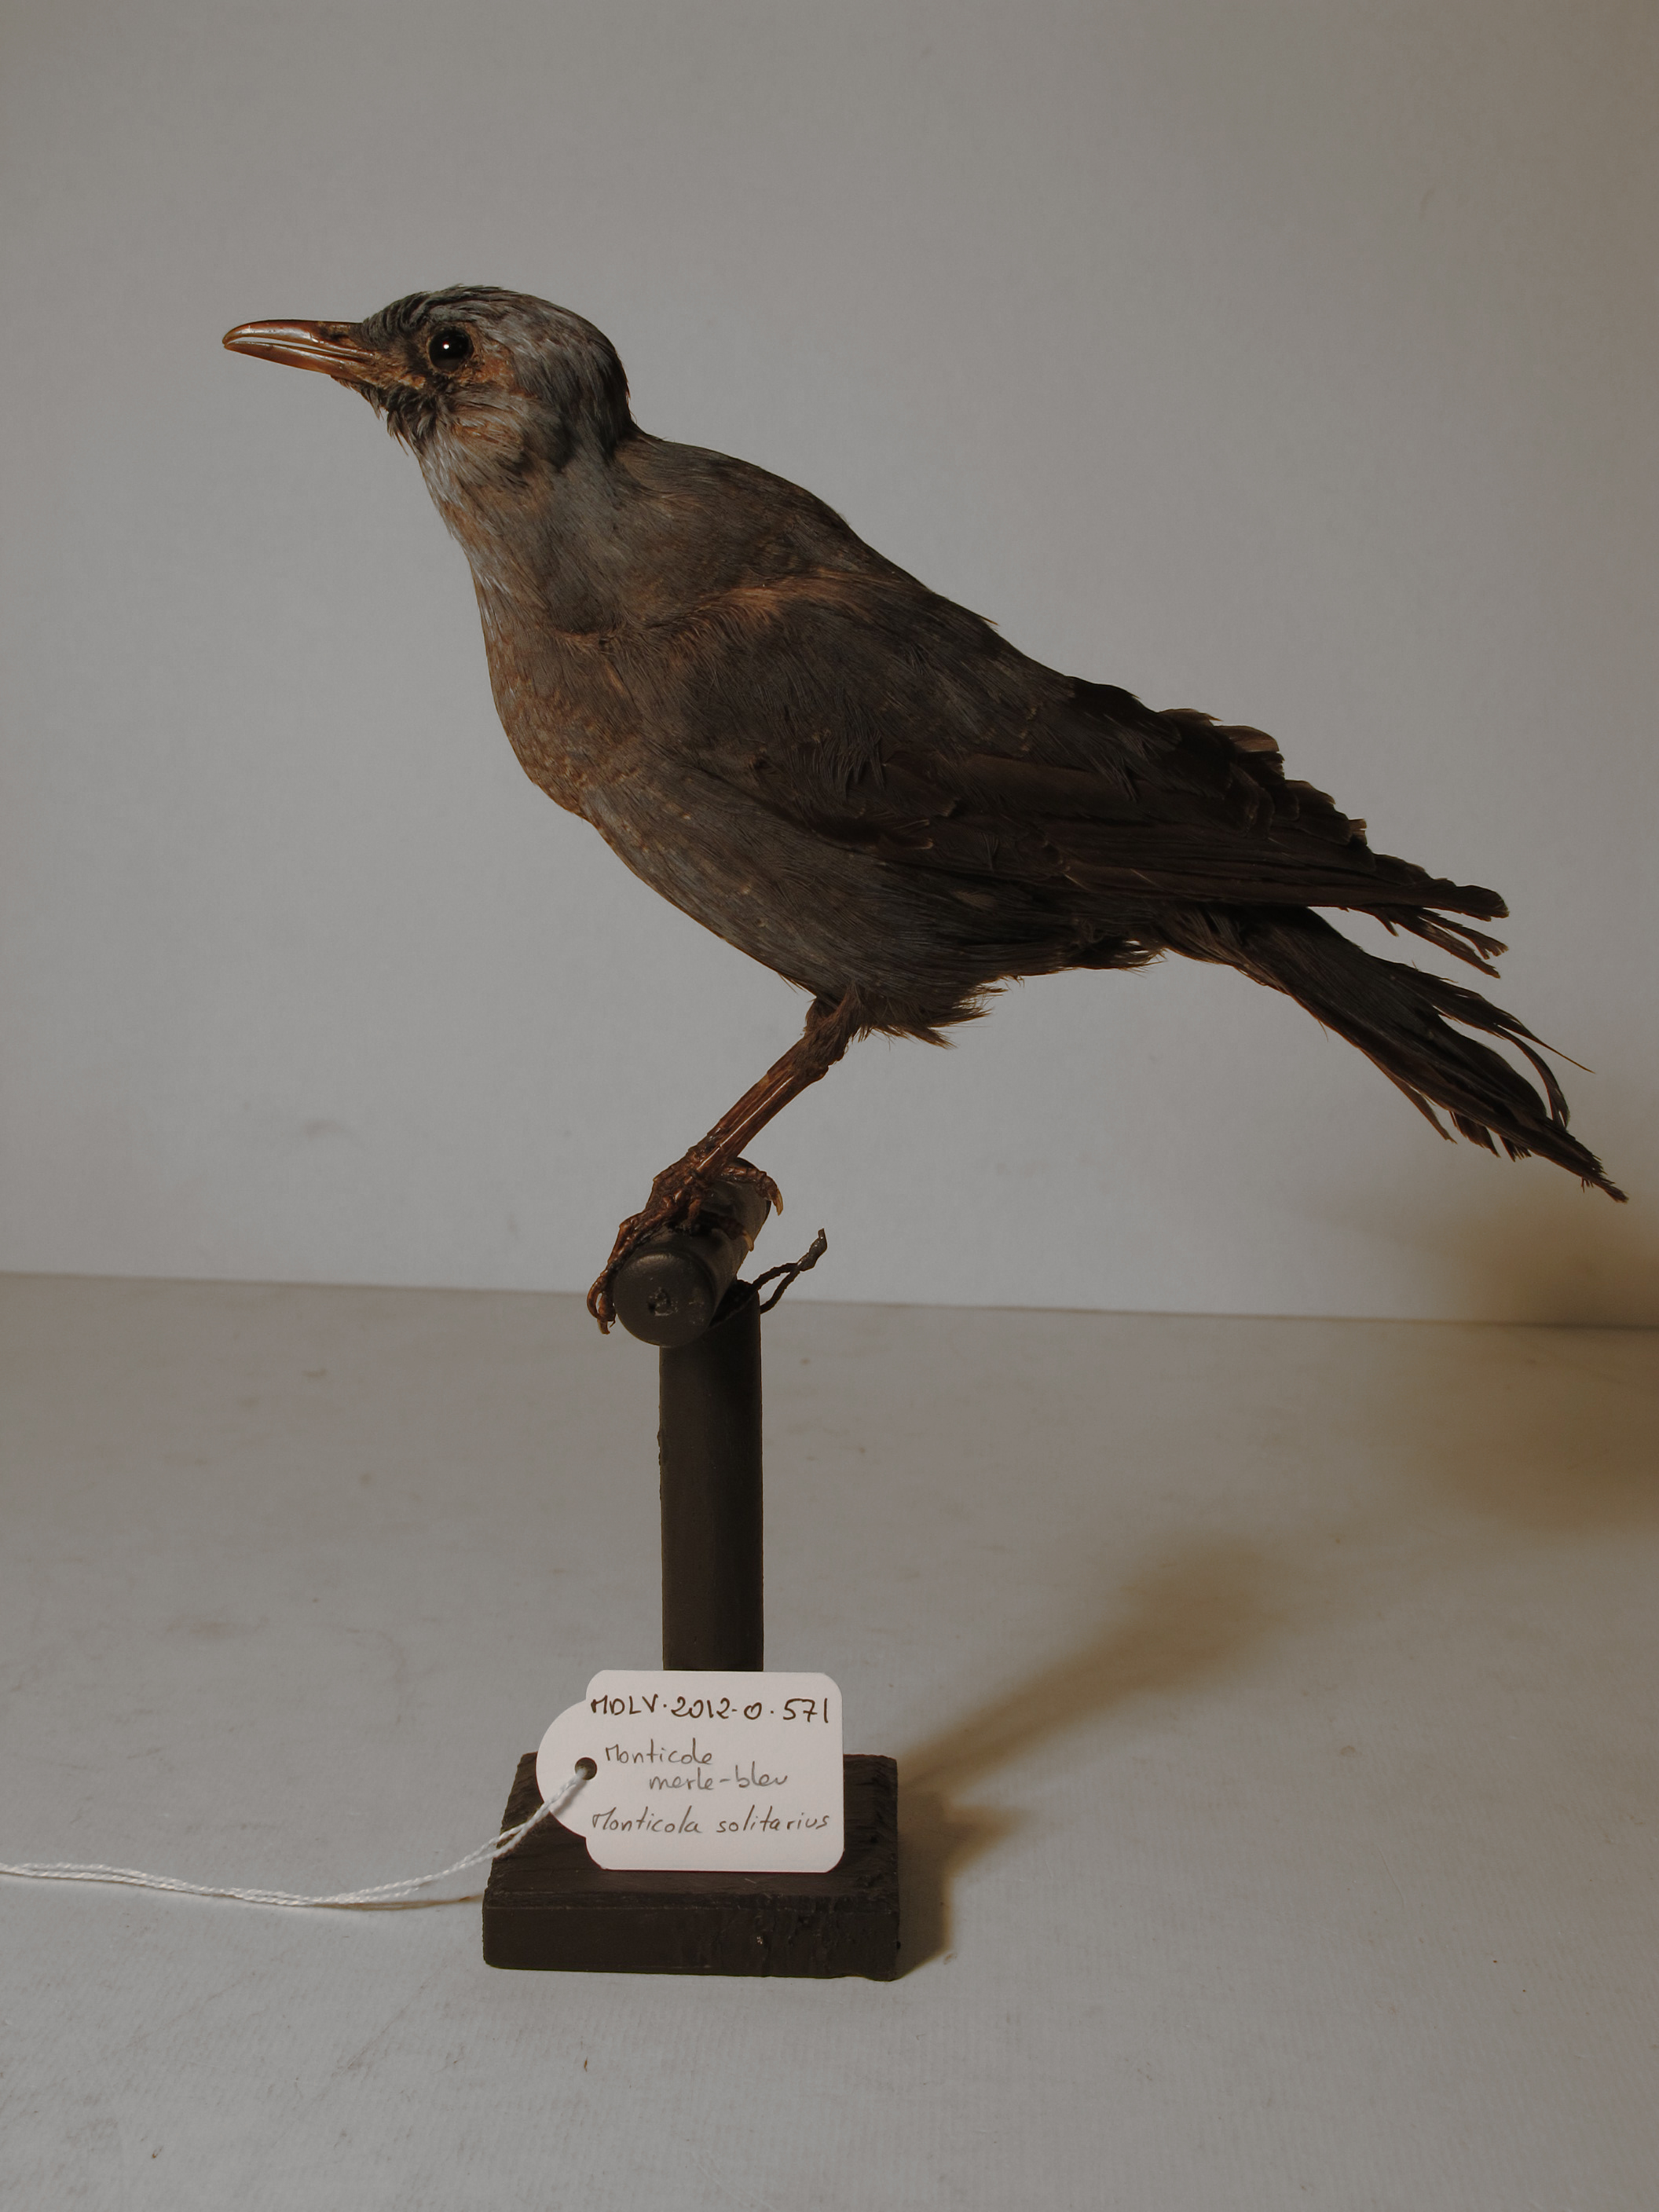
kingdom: Animalia
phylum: Chordata
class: Aves
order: Passeriformes
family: Muscicapidae
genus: Monticola
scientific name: Monticola solitarius
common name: Blue Rock-thrush
